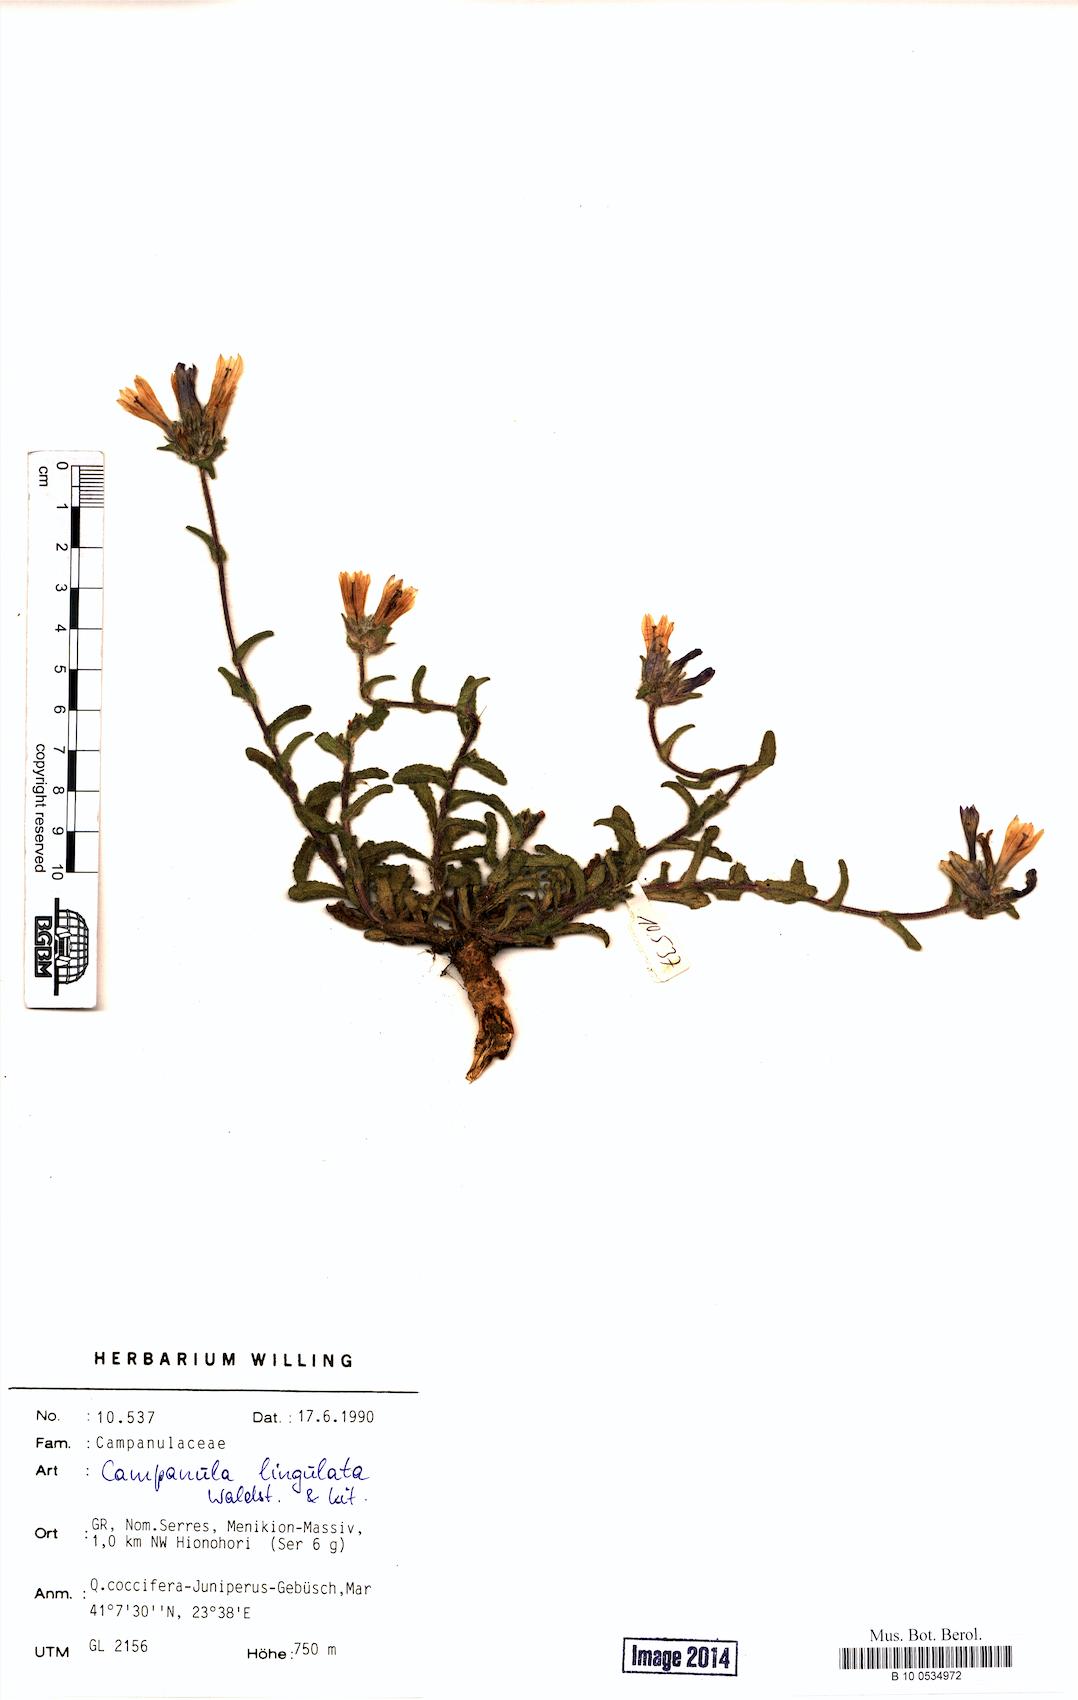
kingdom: Plantae
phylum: Tracheophyta
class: Magnoliopsida
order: Asterales
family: Campanulaceae
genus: Campanula
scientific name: Campanula lingulata
